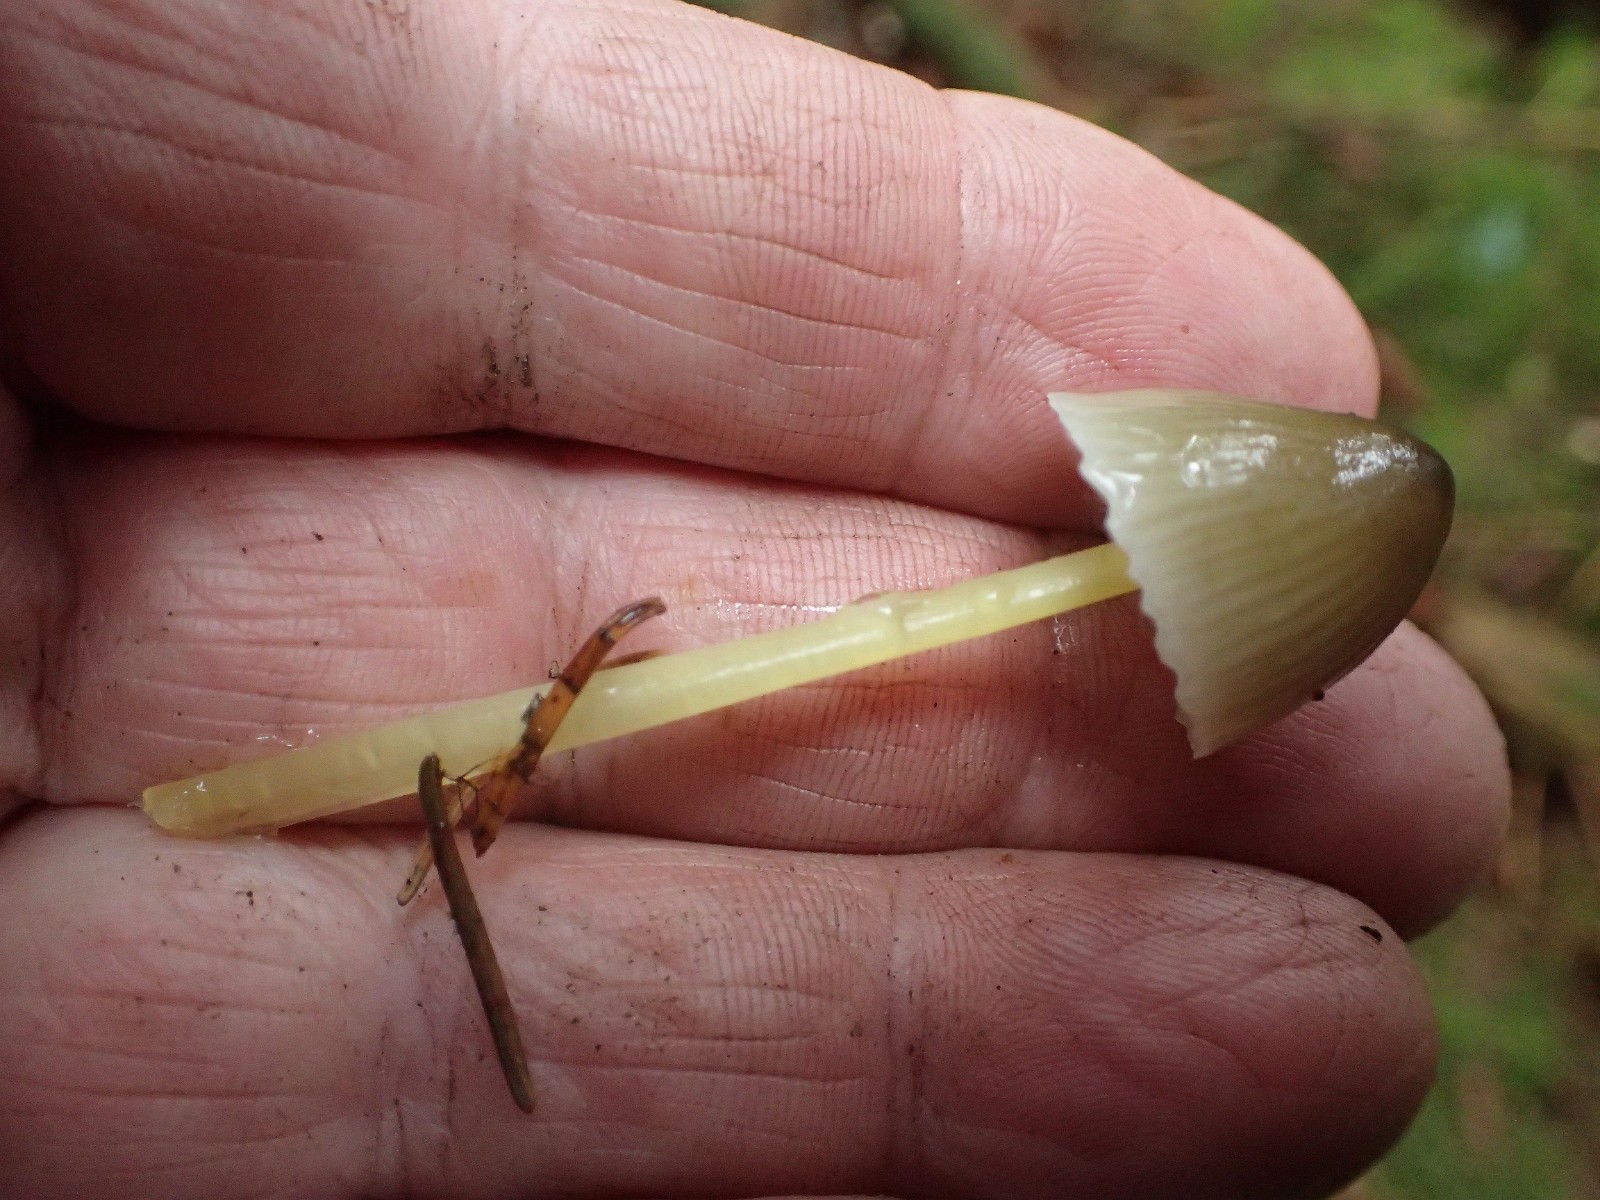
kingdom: Fungi
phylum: Basidiomycota
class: Agaricomycetes
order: Agaricales
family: Mycenaceae
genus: Mycena
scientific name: Mycena epipterygia
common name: gulstokket huesvamp
